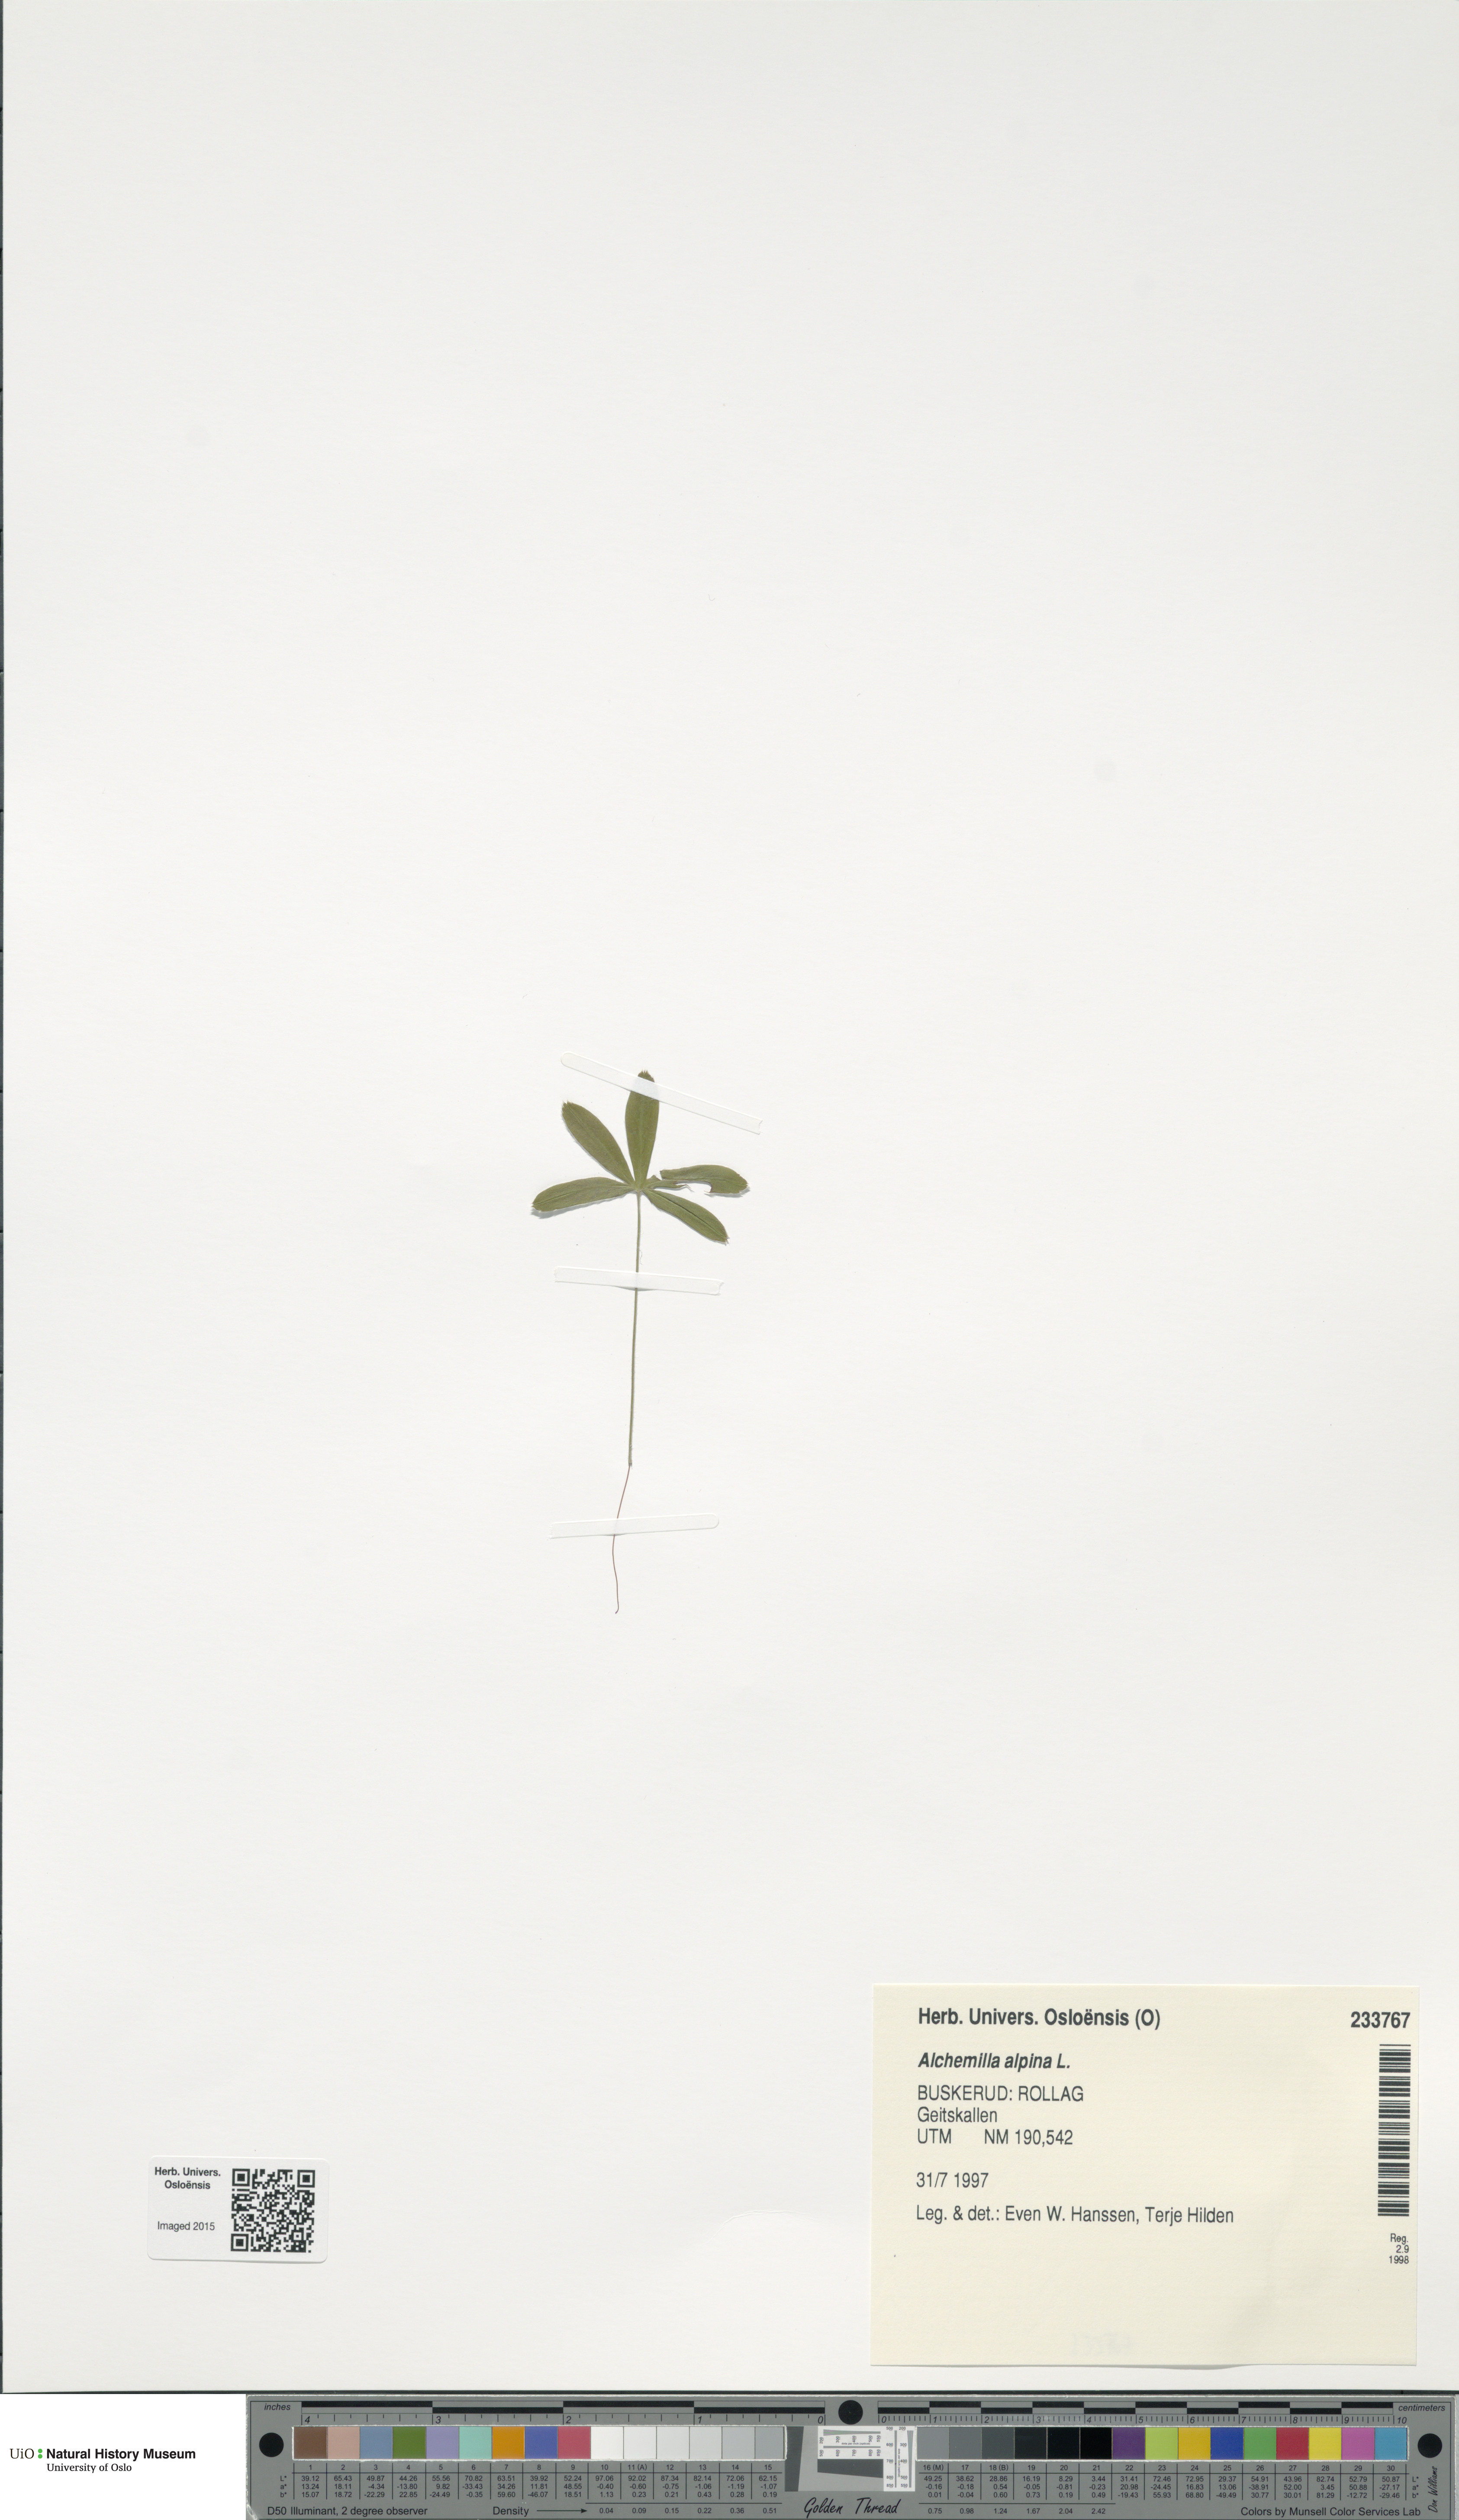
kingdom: Plantae
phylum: Tracheophyta
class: Magnoliopsida
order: Rosales
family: Rosaceae
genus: Alchemilla
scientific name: Alchemilla alpina
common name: Alpine lady's-mantle
